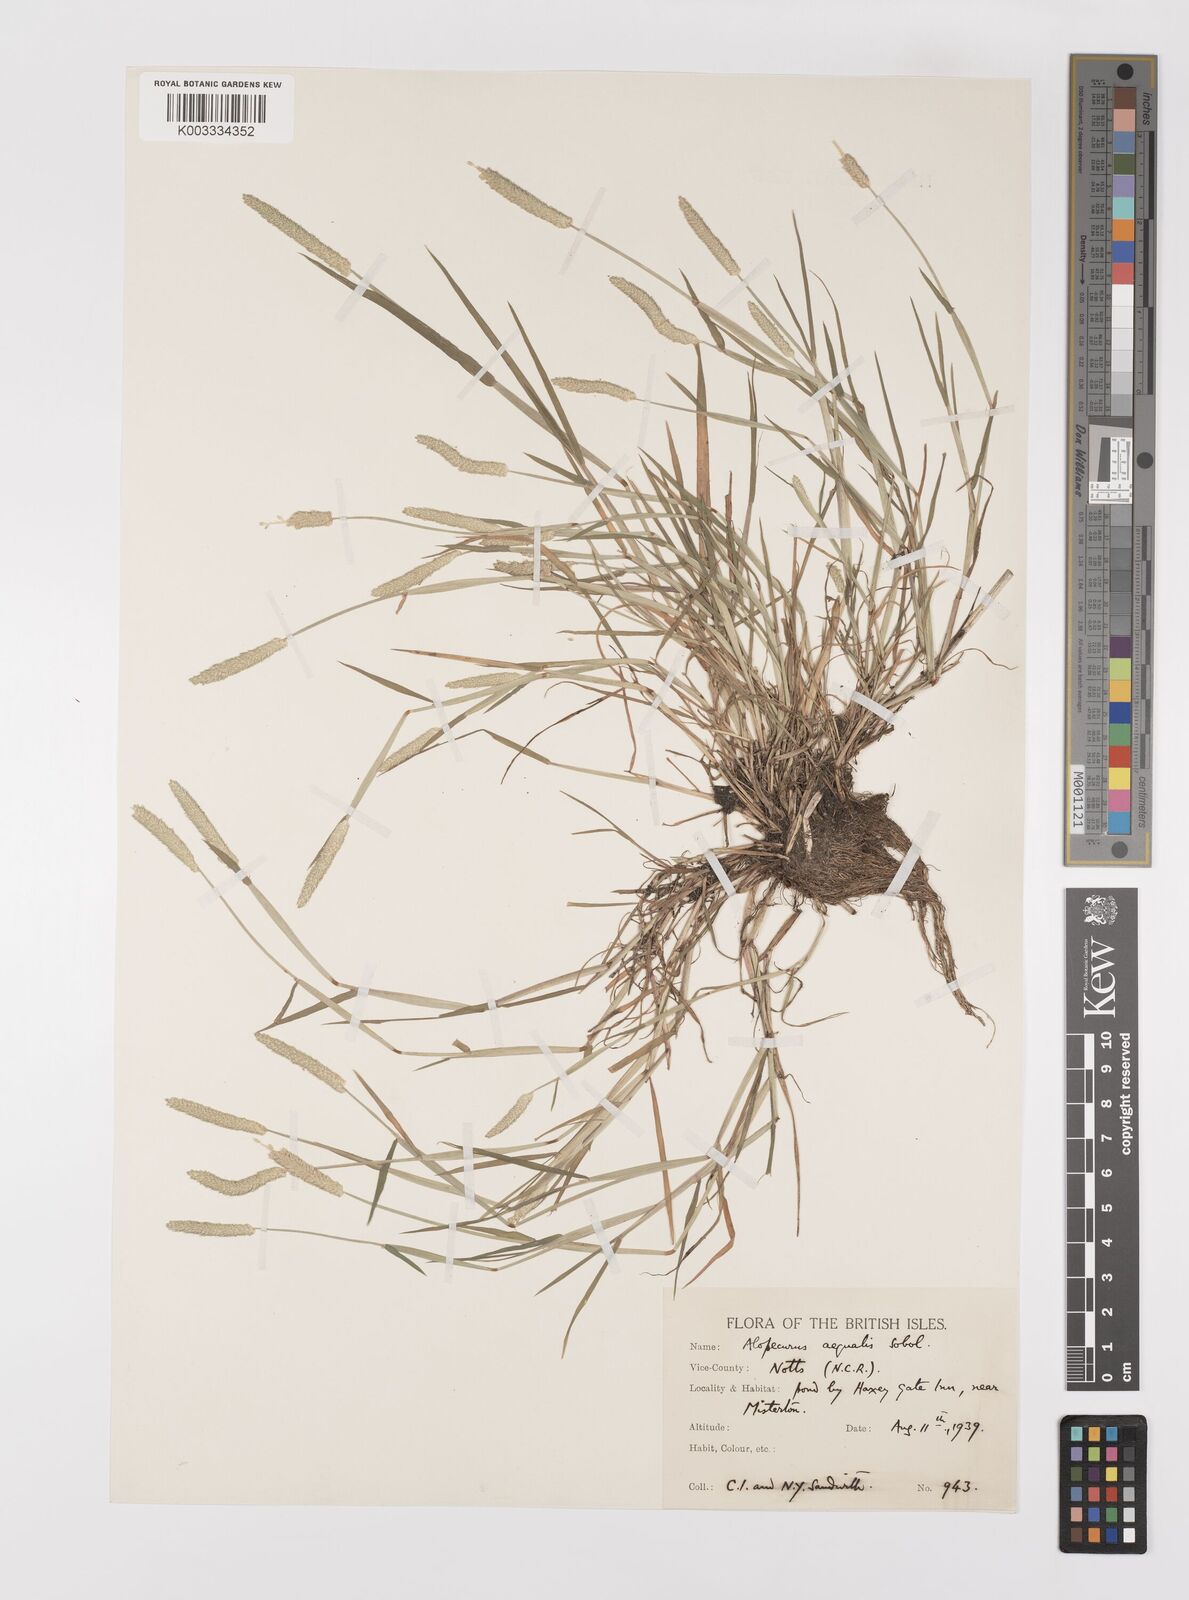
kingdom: Plantae
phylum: Tracheophyta
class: Liliopsida
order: Poales
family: Poaceae
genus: Alopecurus
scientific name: Alopecurus aequalis
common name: Orange foxtail
